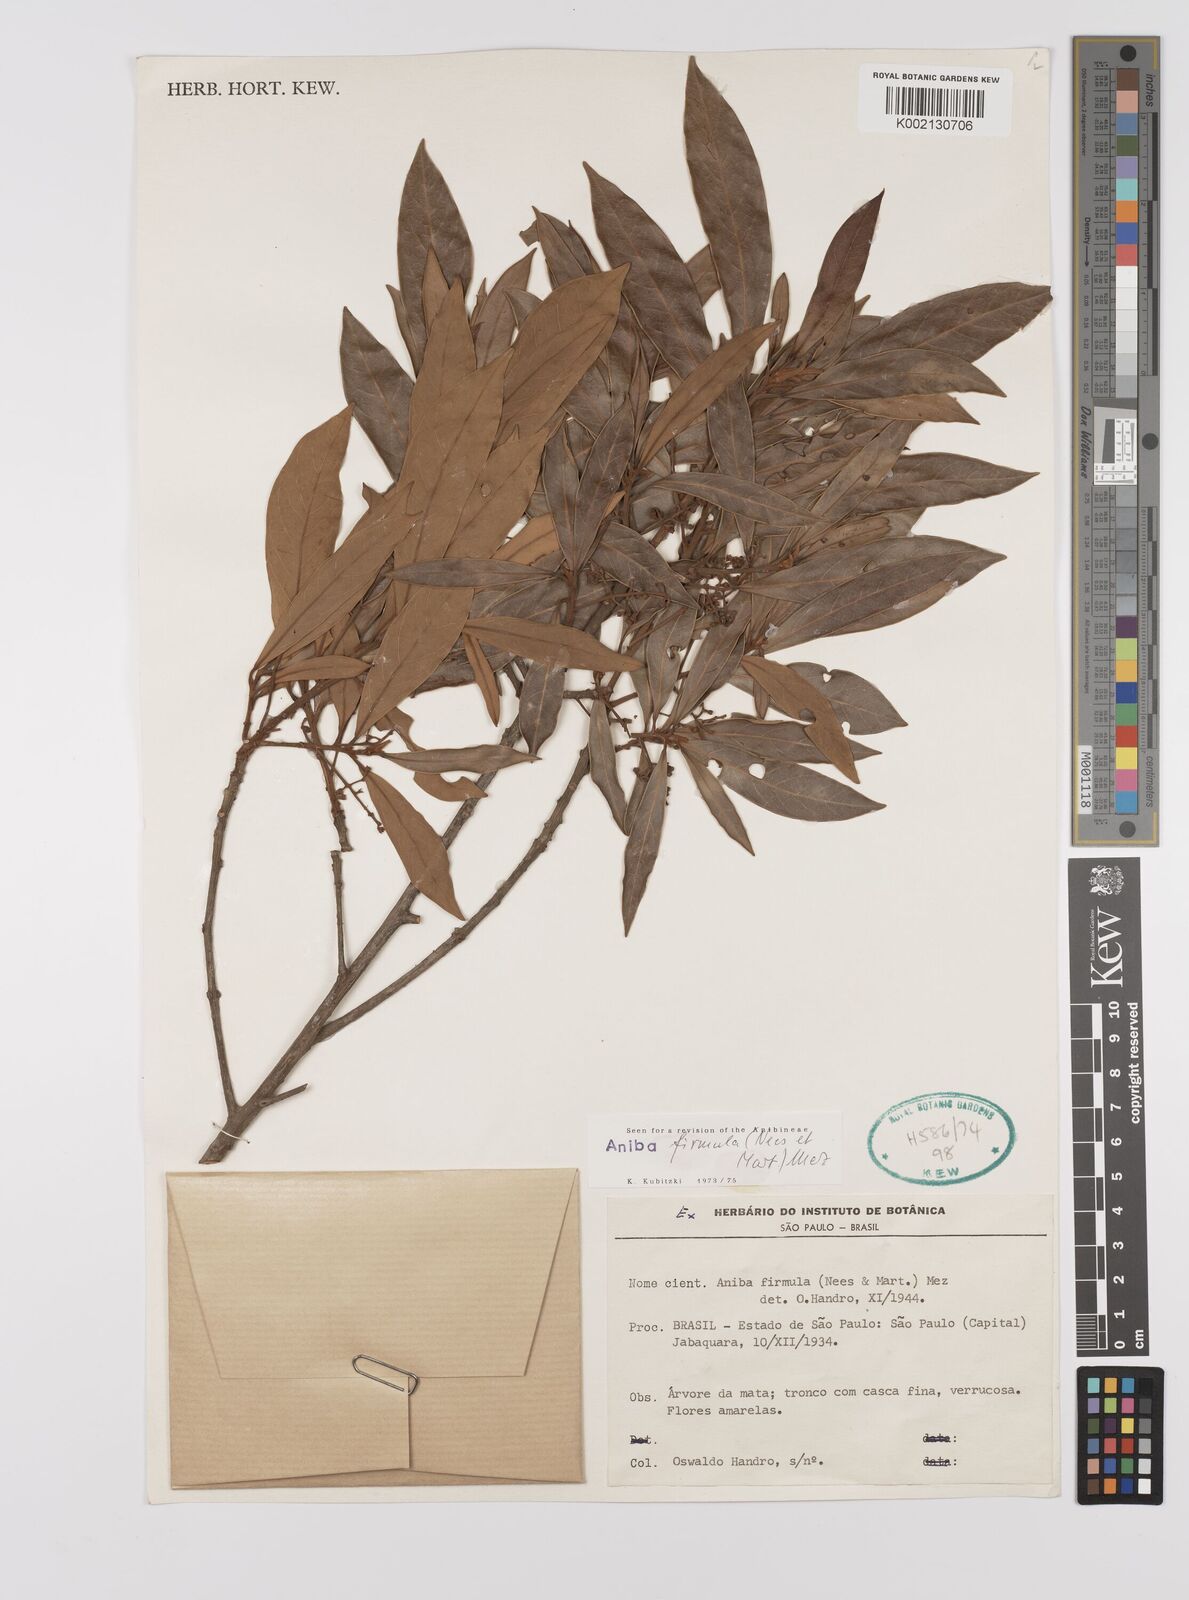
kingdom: Plantae
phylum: Tracheophyta
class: Magnoliopsida
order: Laurales
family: Lauraceae
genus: Aniba
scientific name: Aniba firmula
